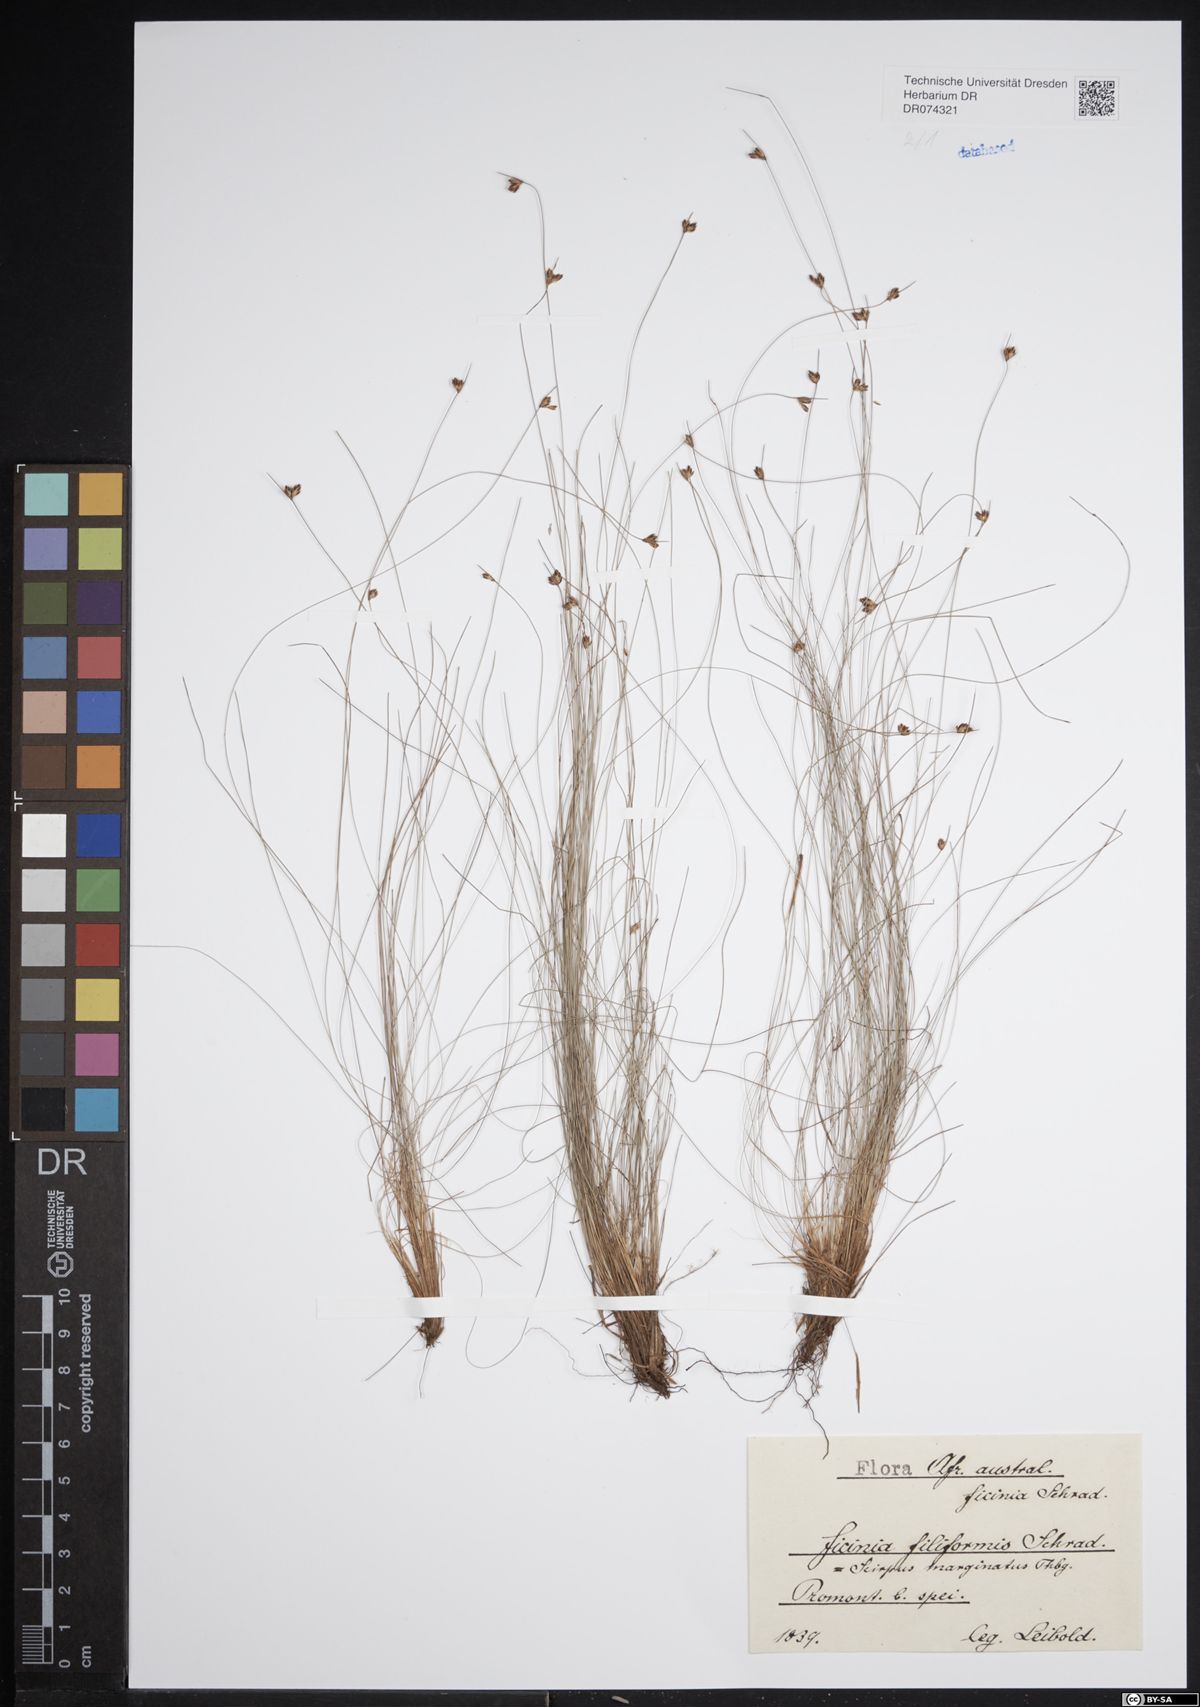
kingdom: Plantae
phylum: Tracheophyta
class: Liliopsida
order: Poales
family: Cyperaceae
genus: Ficinia
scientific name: Ficinia filiformis
